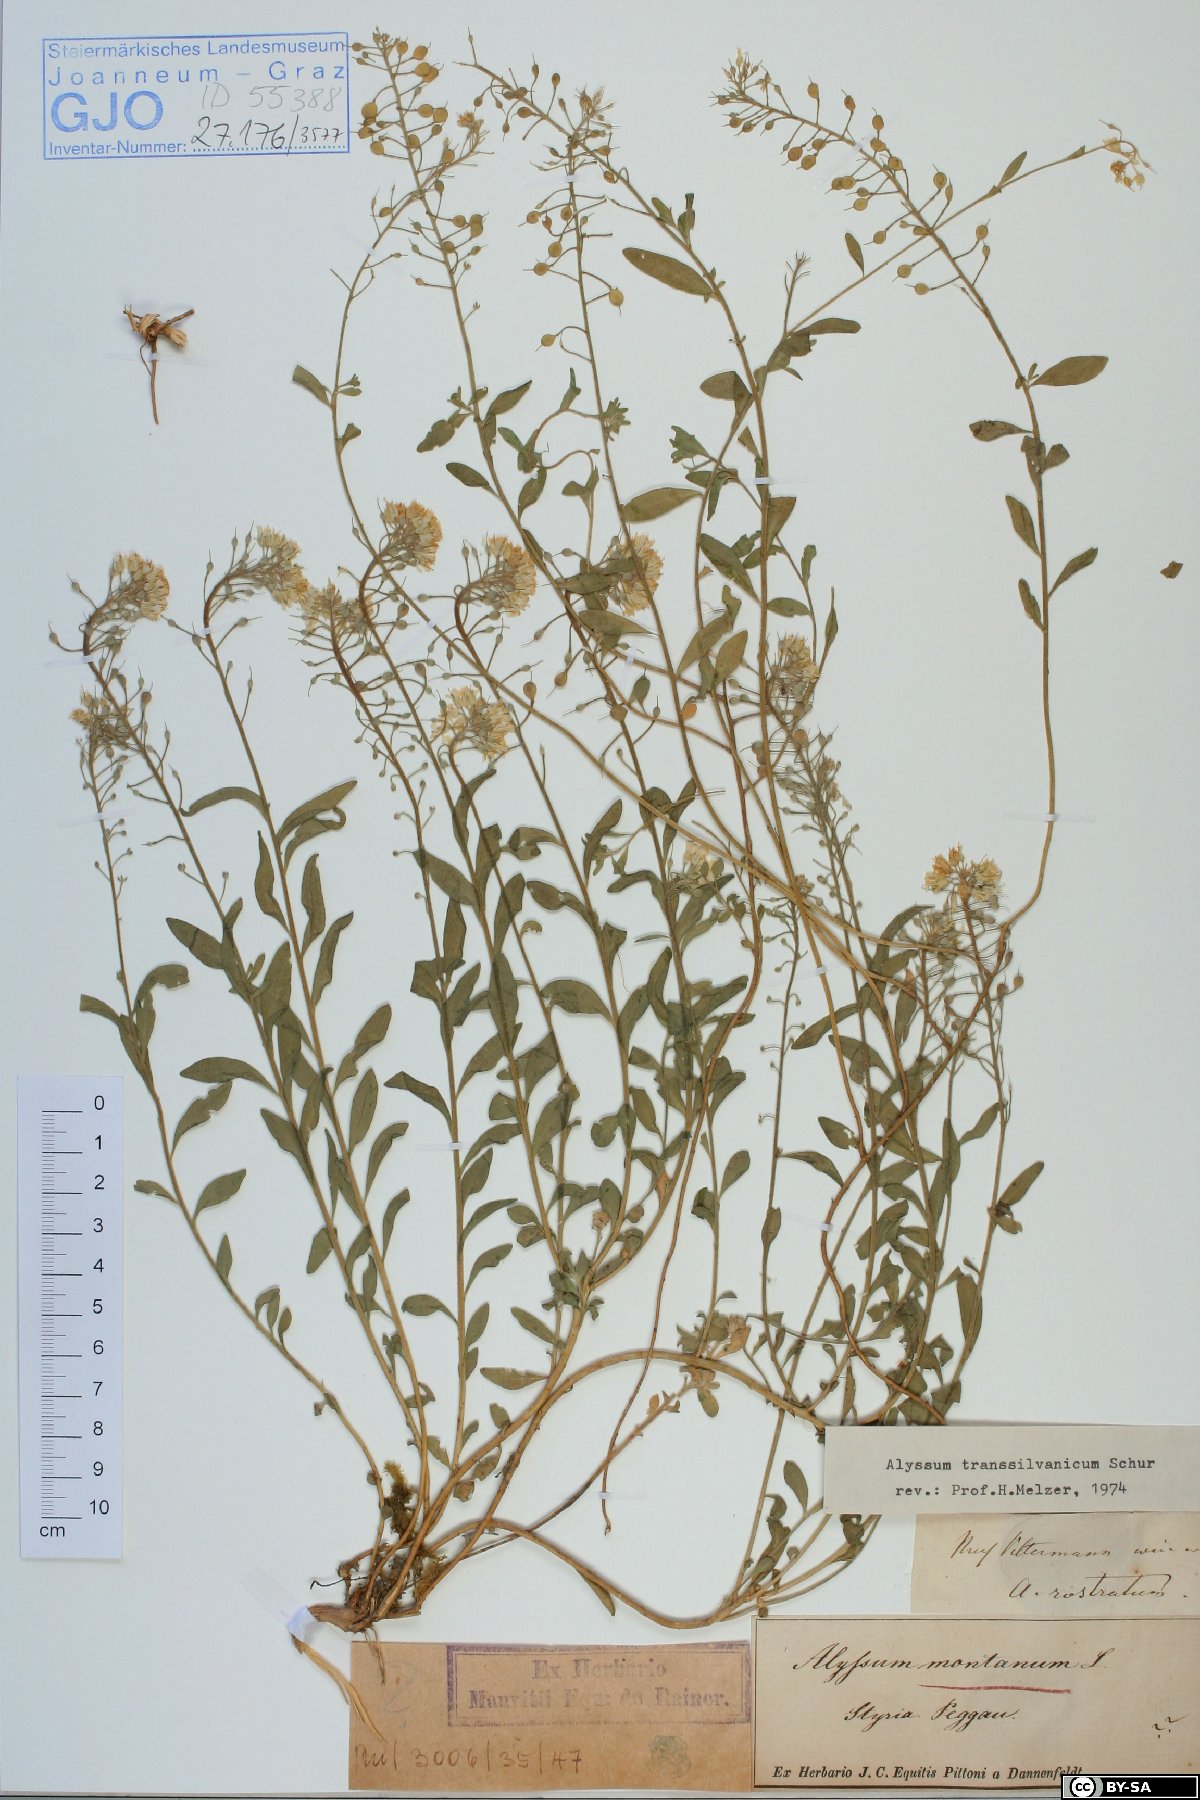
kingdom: Plantae
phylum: Tracheophyta
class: Magnoliopsida
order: Brassicales
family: Brassicaceae
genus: Alyssum
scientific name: Alyssum repens
